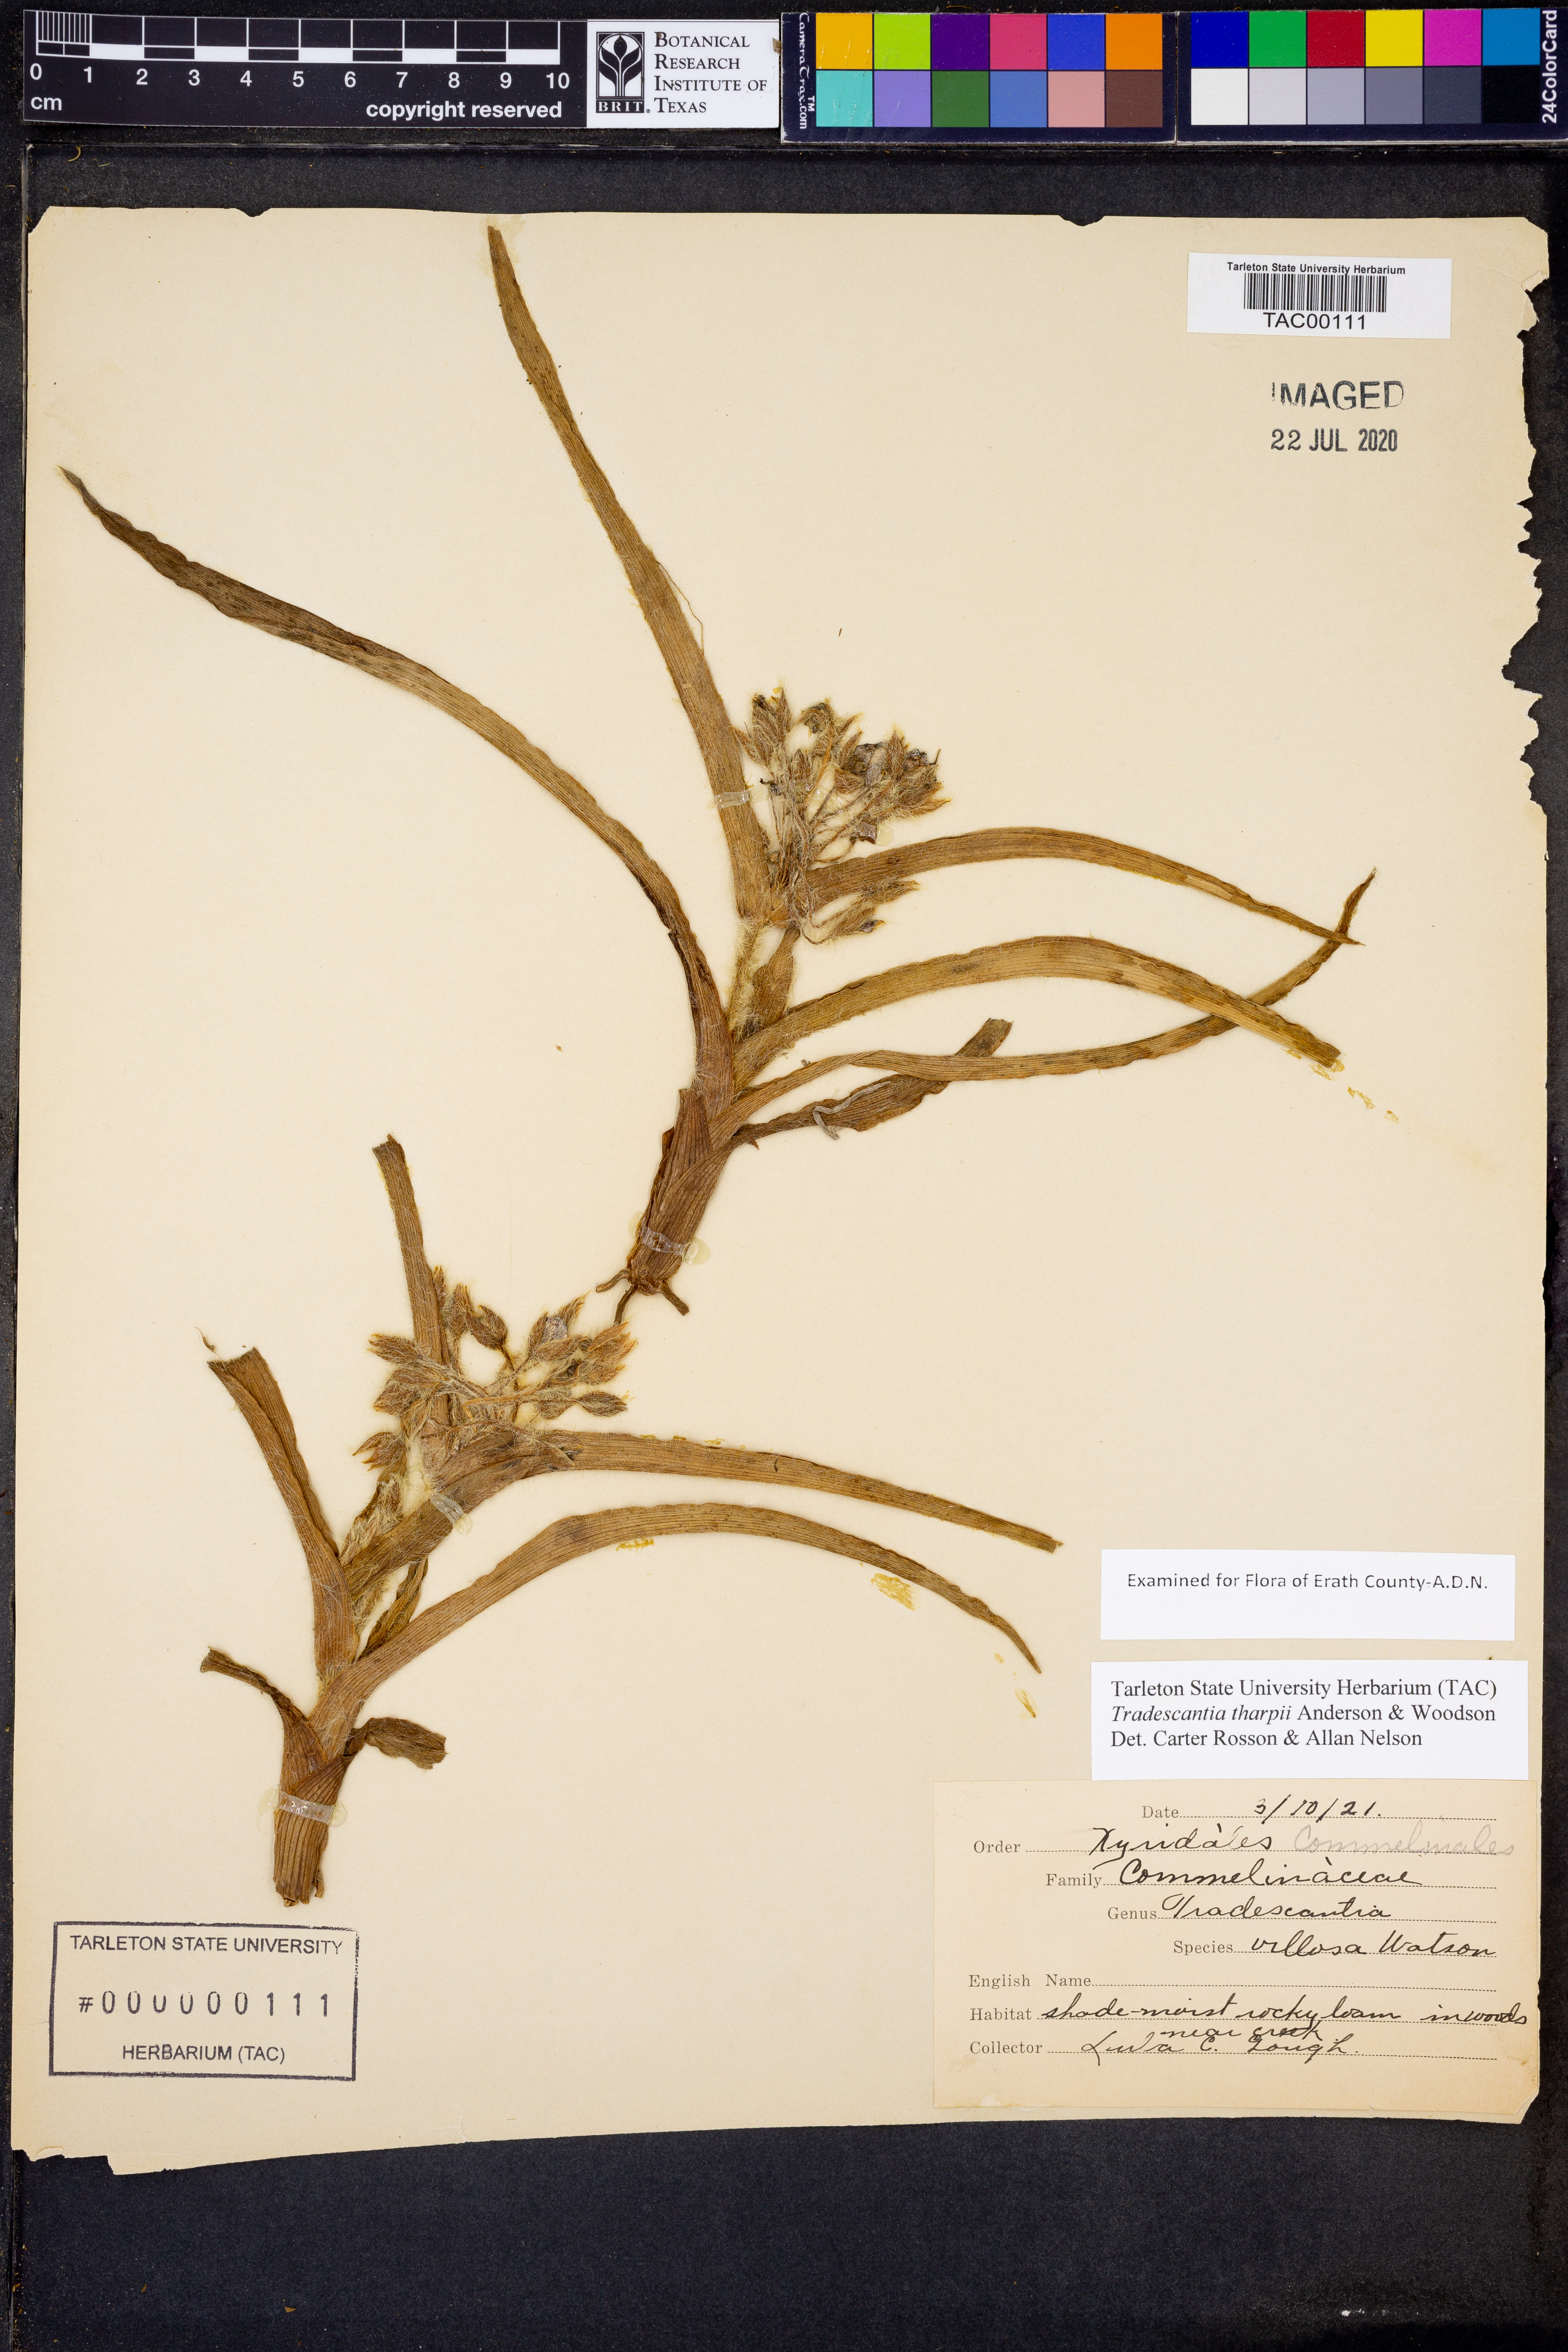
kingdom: Plantae
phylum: Tracheophyta
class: Liliopsida
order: Commelinales
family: Commelinaceae
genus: Tradescantia
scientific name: Tradescantia tharpii
